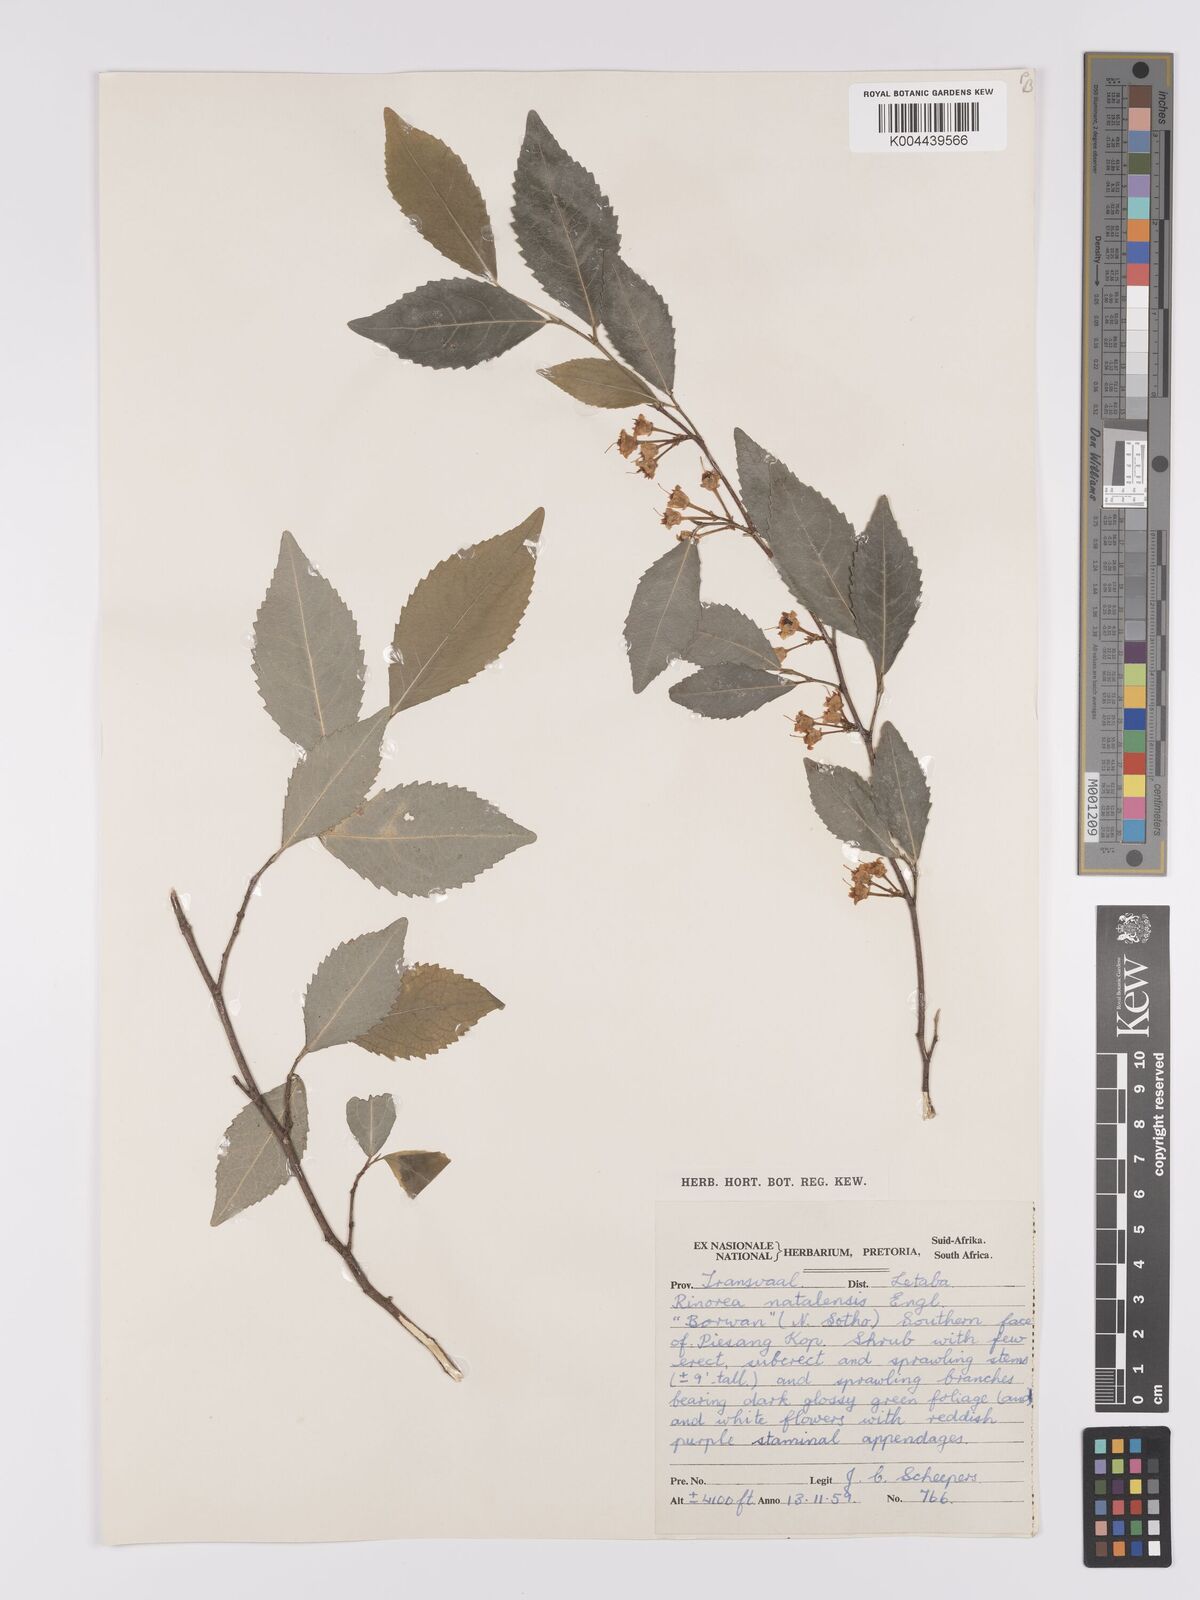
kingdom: Plantae
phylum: Tracheophyta
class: Magnoliopsida
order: Malpighiales
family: Violaceae
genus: Rinorea
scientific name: Rinorea angustifolia
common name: White violet-bush
